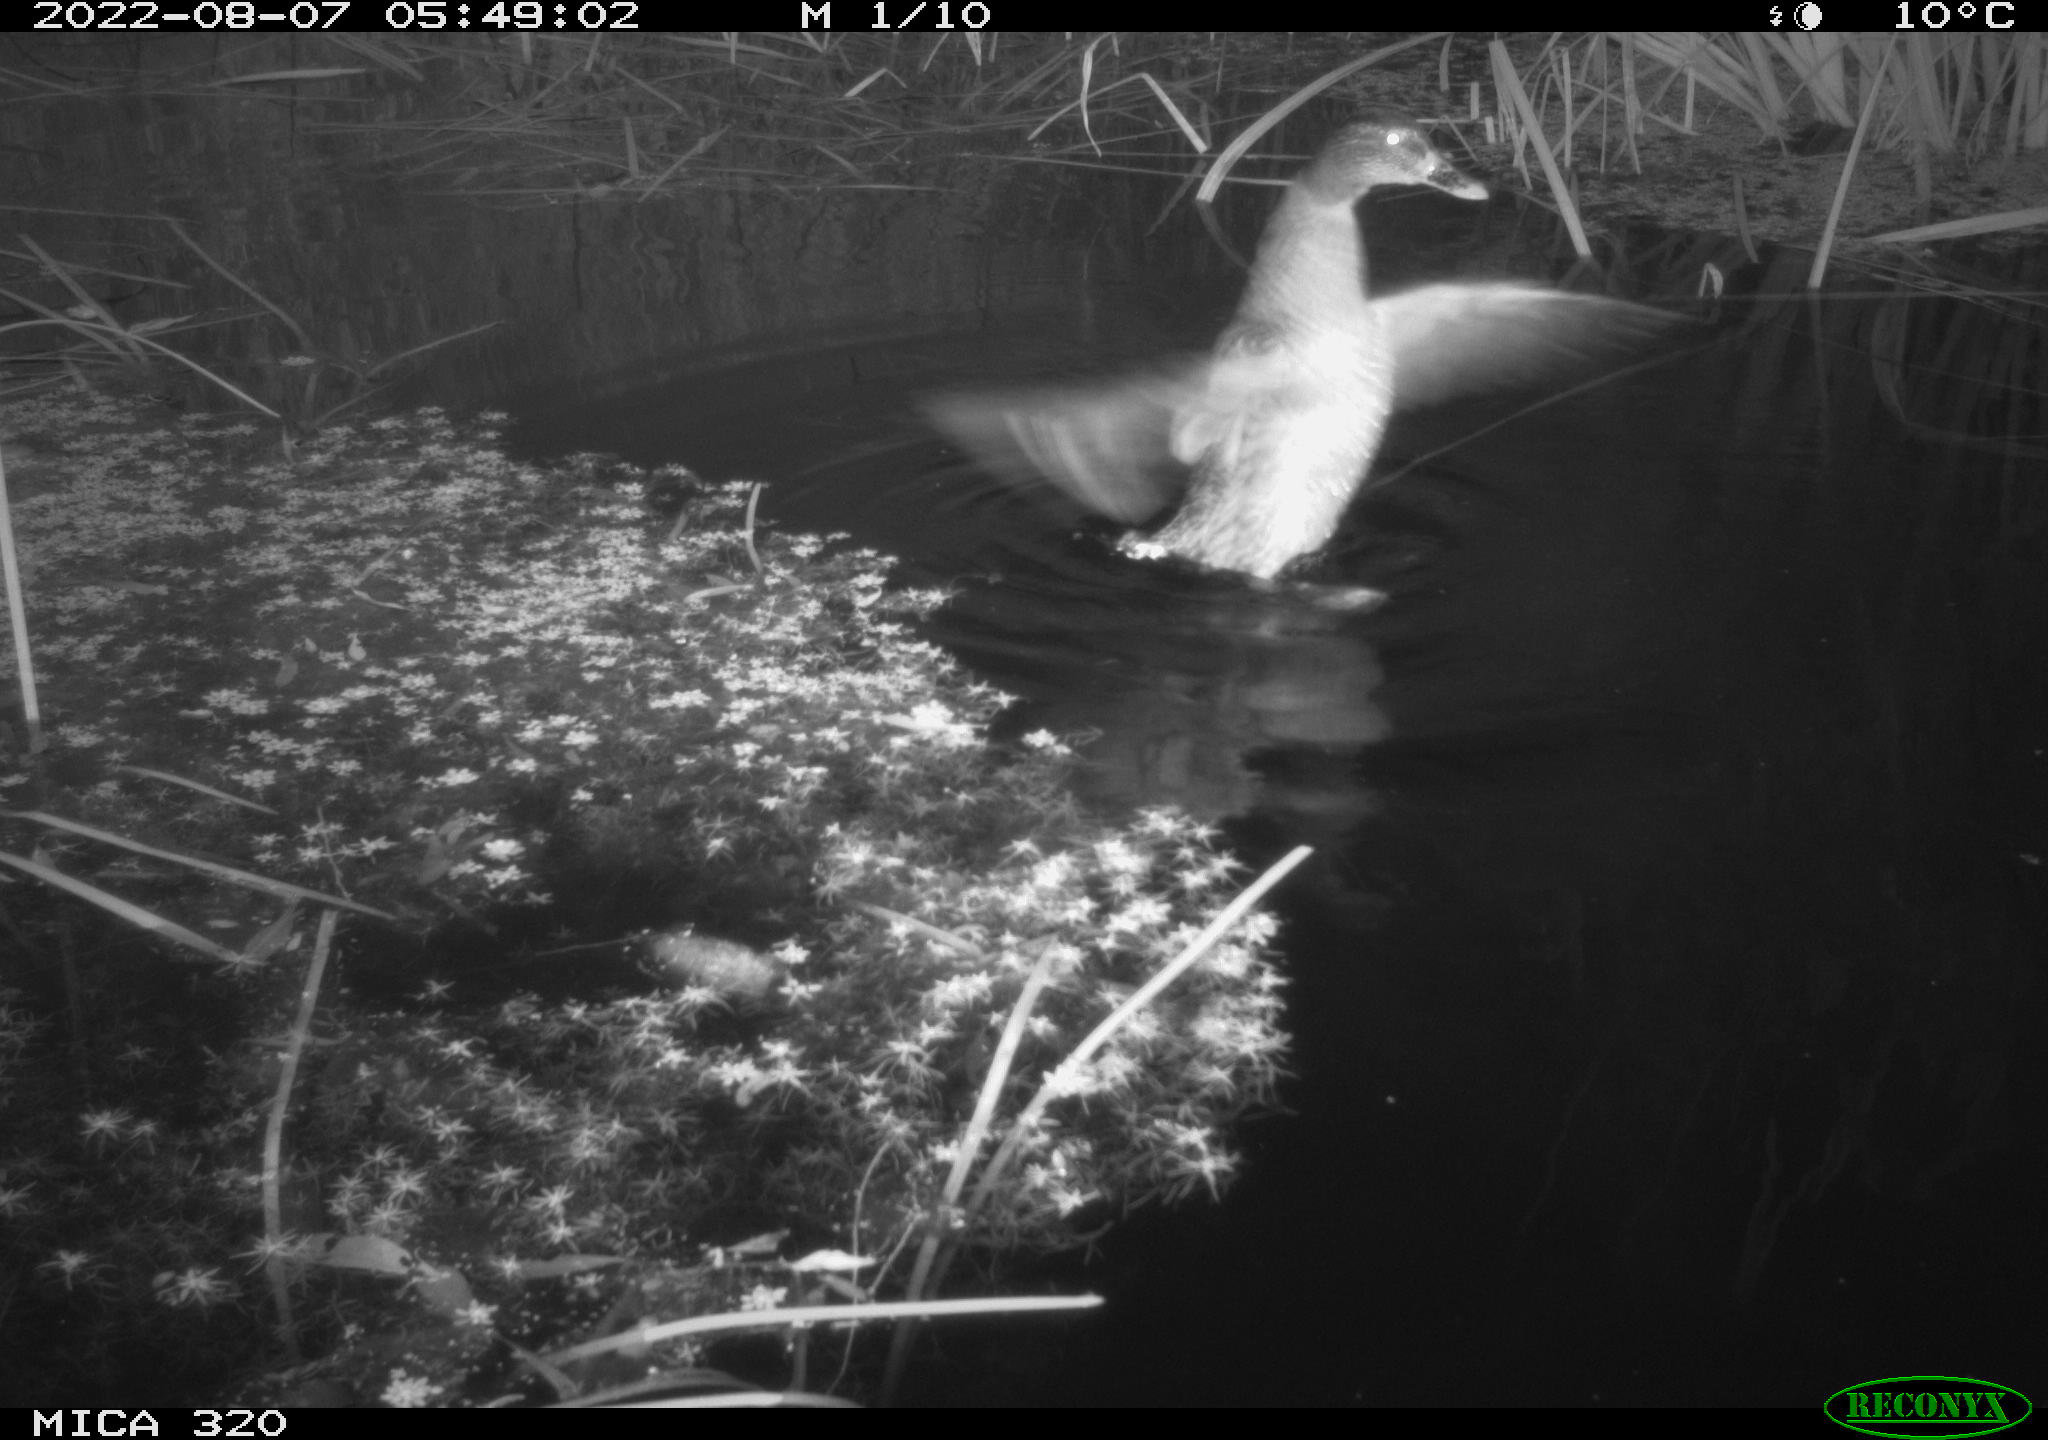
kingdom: Animalia
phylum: Chordata
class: Aves
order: Anseriformes
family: Anatidae
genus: Anas
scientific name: Anas platyrhynchos
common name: Mallard
